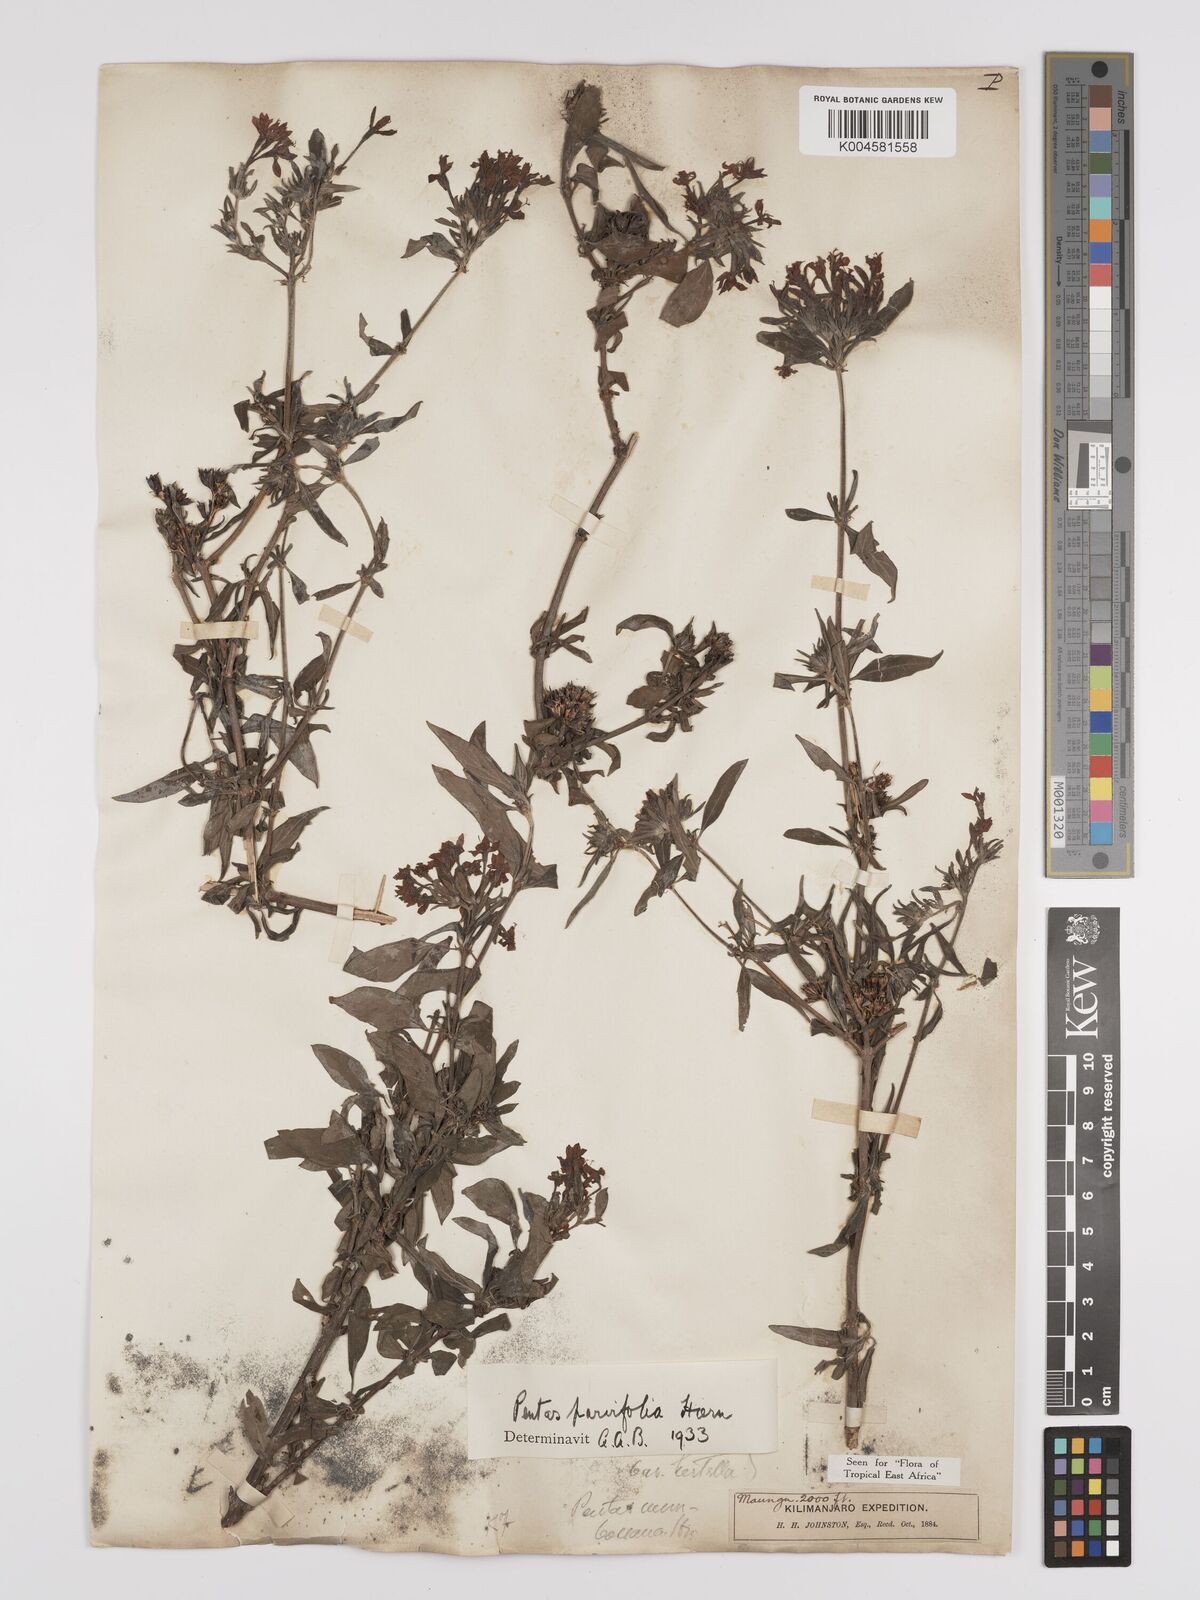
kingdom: Plantae
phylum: Tracheophyta
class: Magnoliopsida
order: Gentianales
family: Rubiaceae
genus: Rhodopentas
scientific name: Rhodopentas parvifolia
